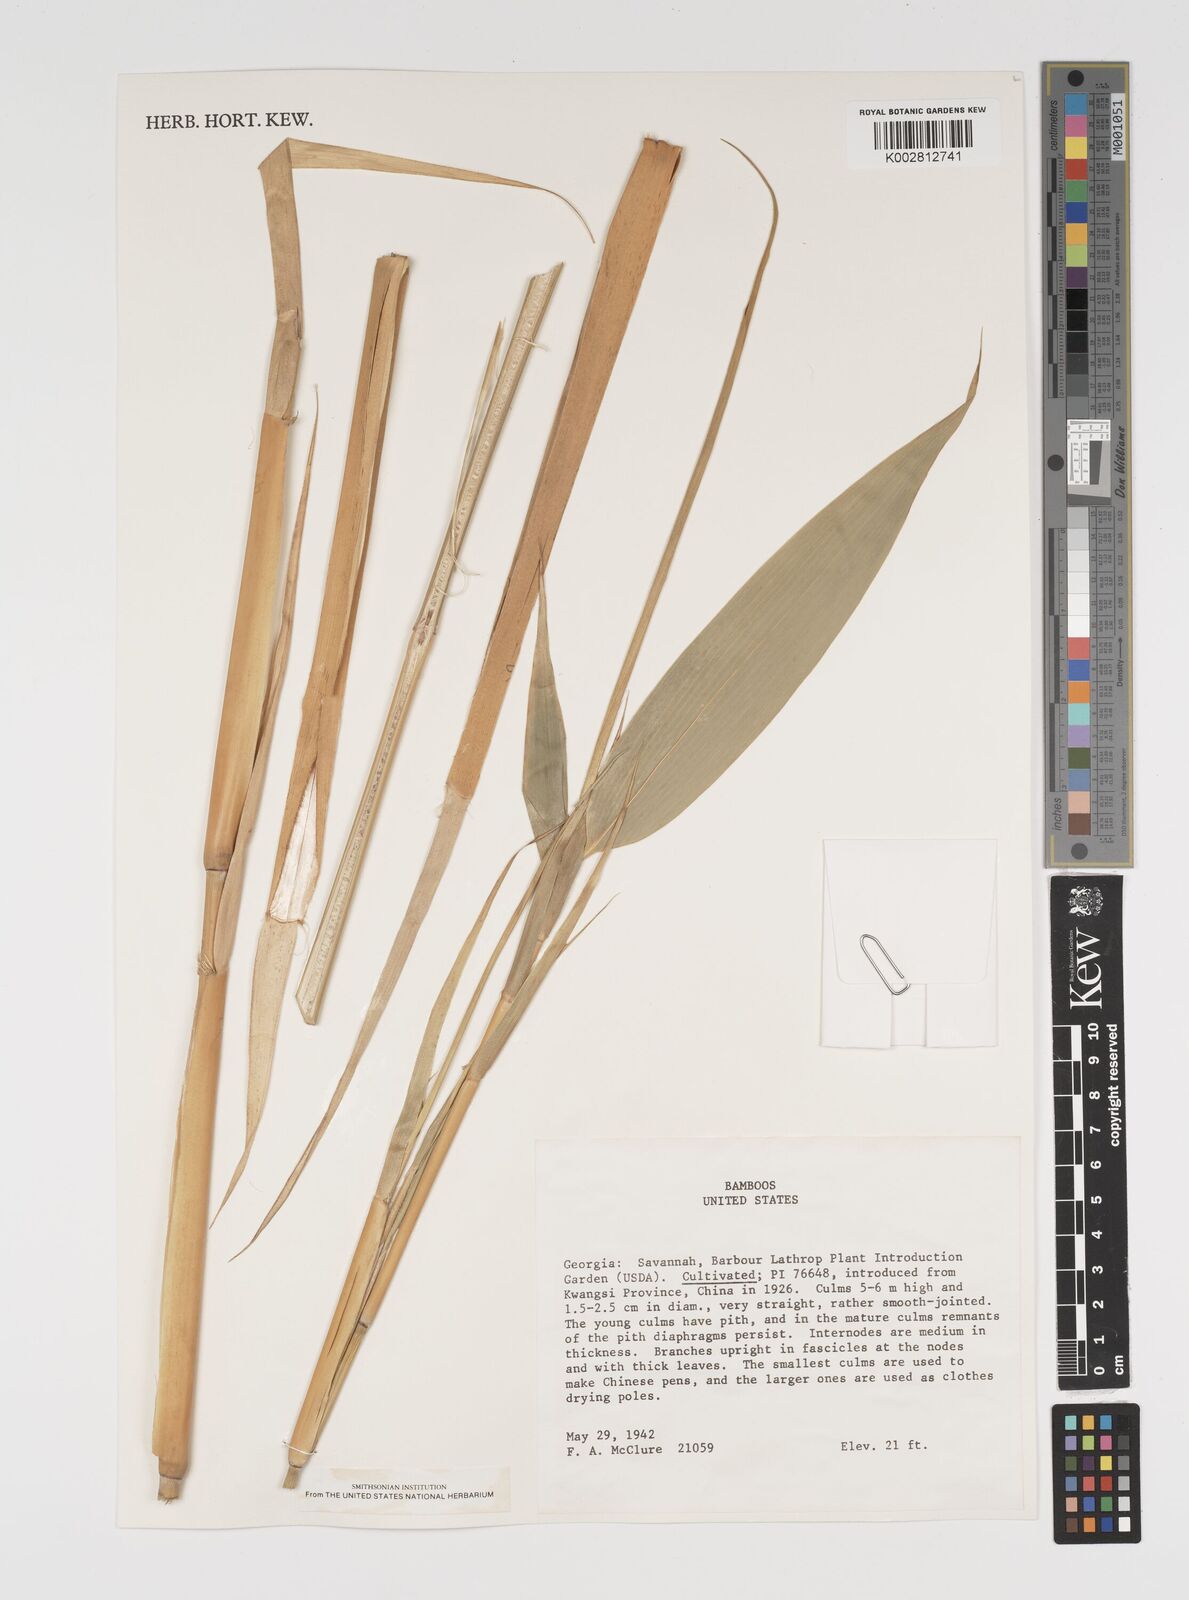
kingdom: Plantae
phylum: Tracheophyta
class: Liliopsida
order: Poales
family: Poaceae
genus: Arundinaria
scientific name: Arundinaria
